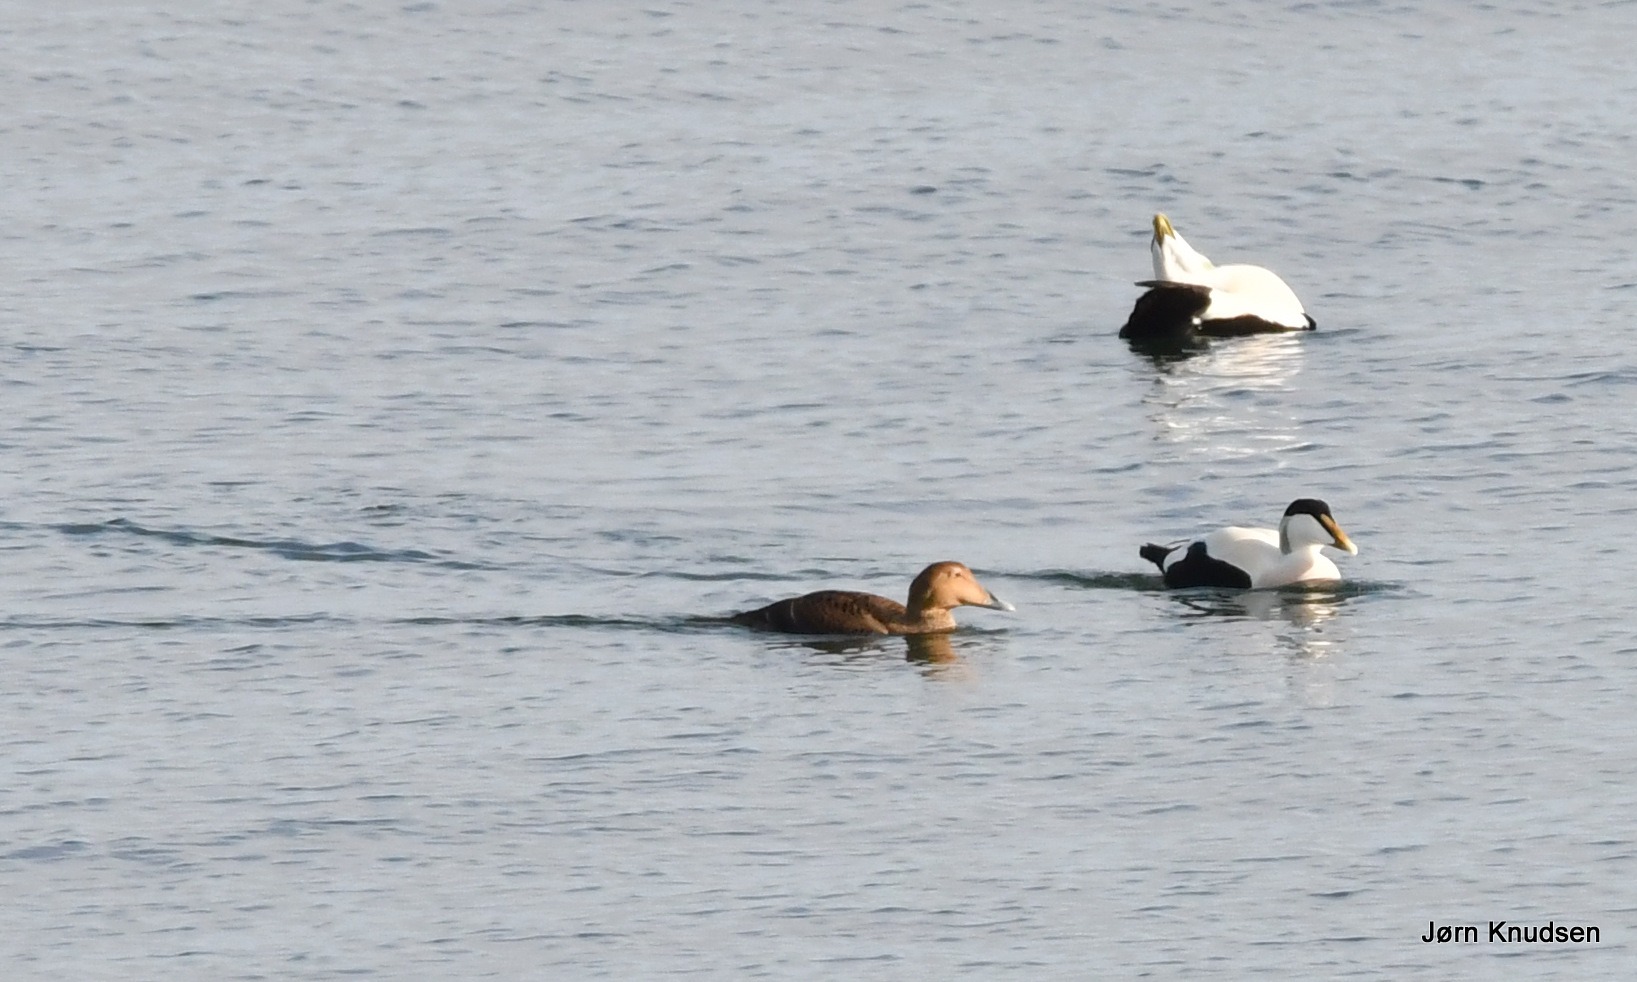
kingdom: Animalia
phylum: Chordata
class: Aves
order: Anseriformes
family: Anatidae
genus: Somateria
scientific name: Somateria mollissima
